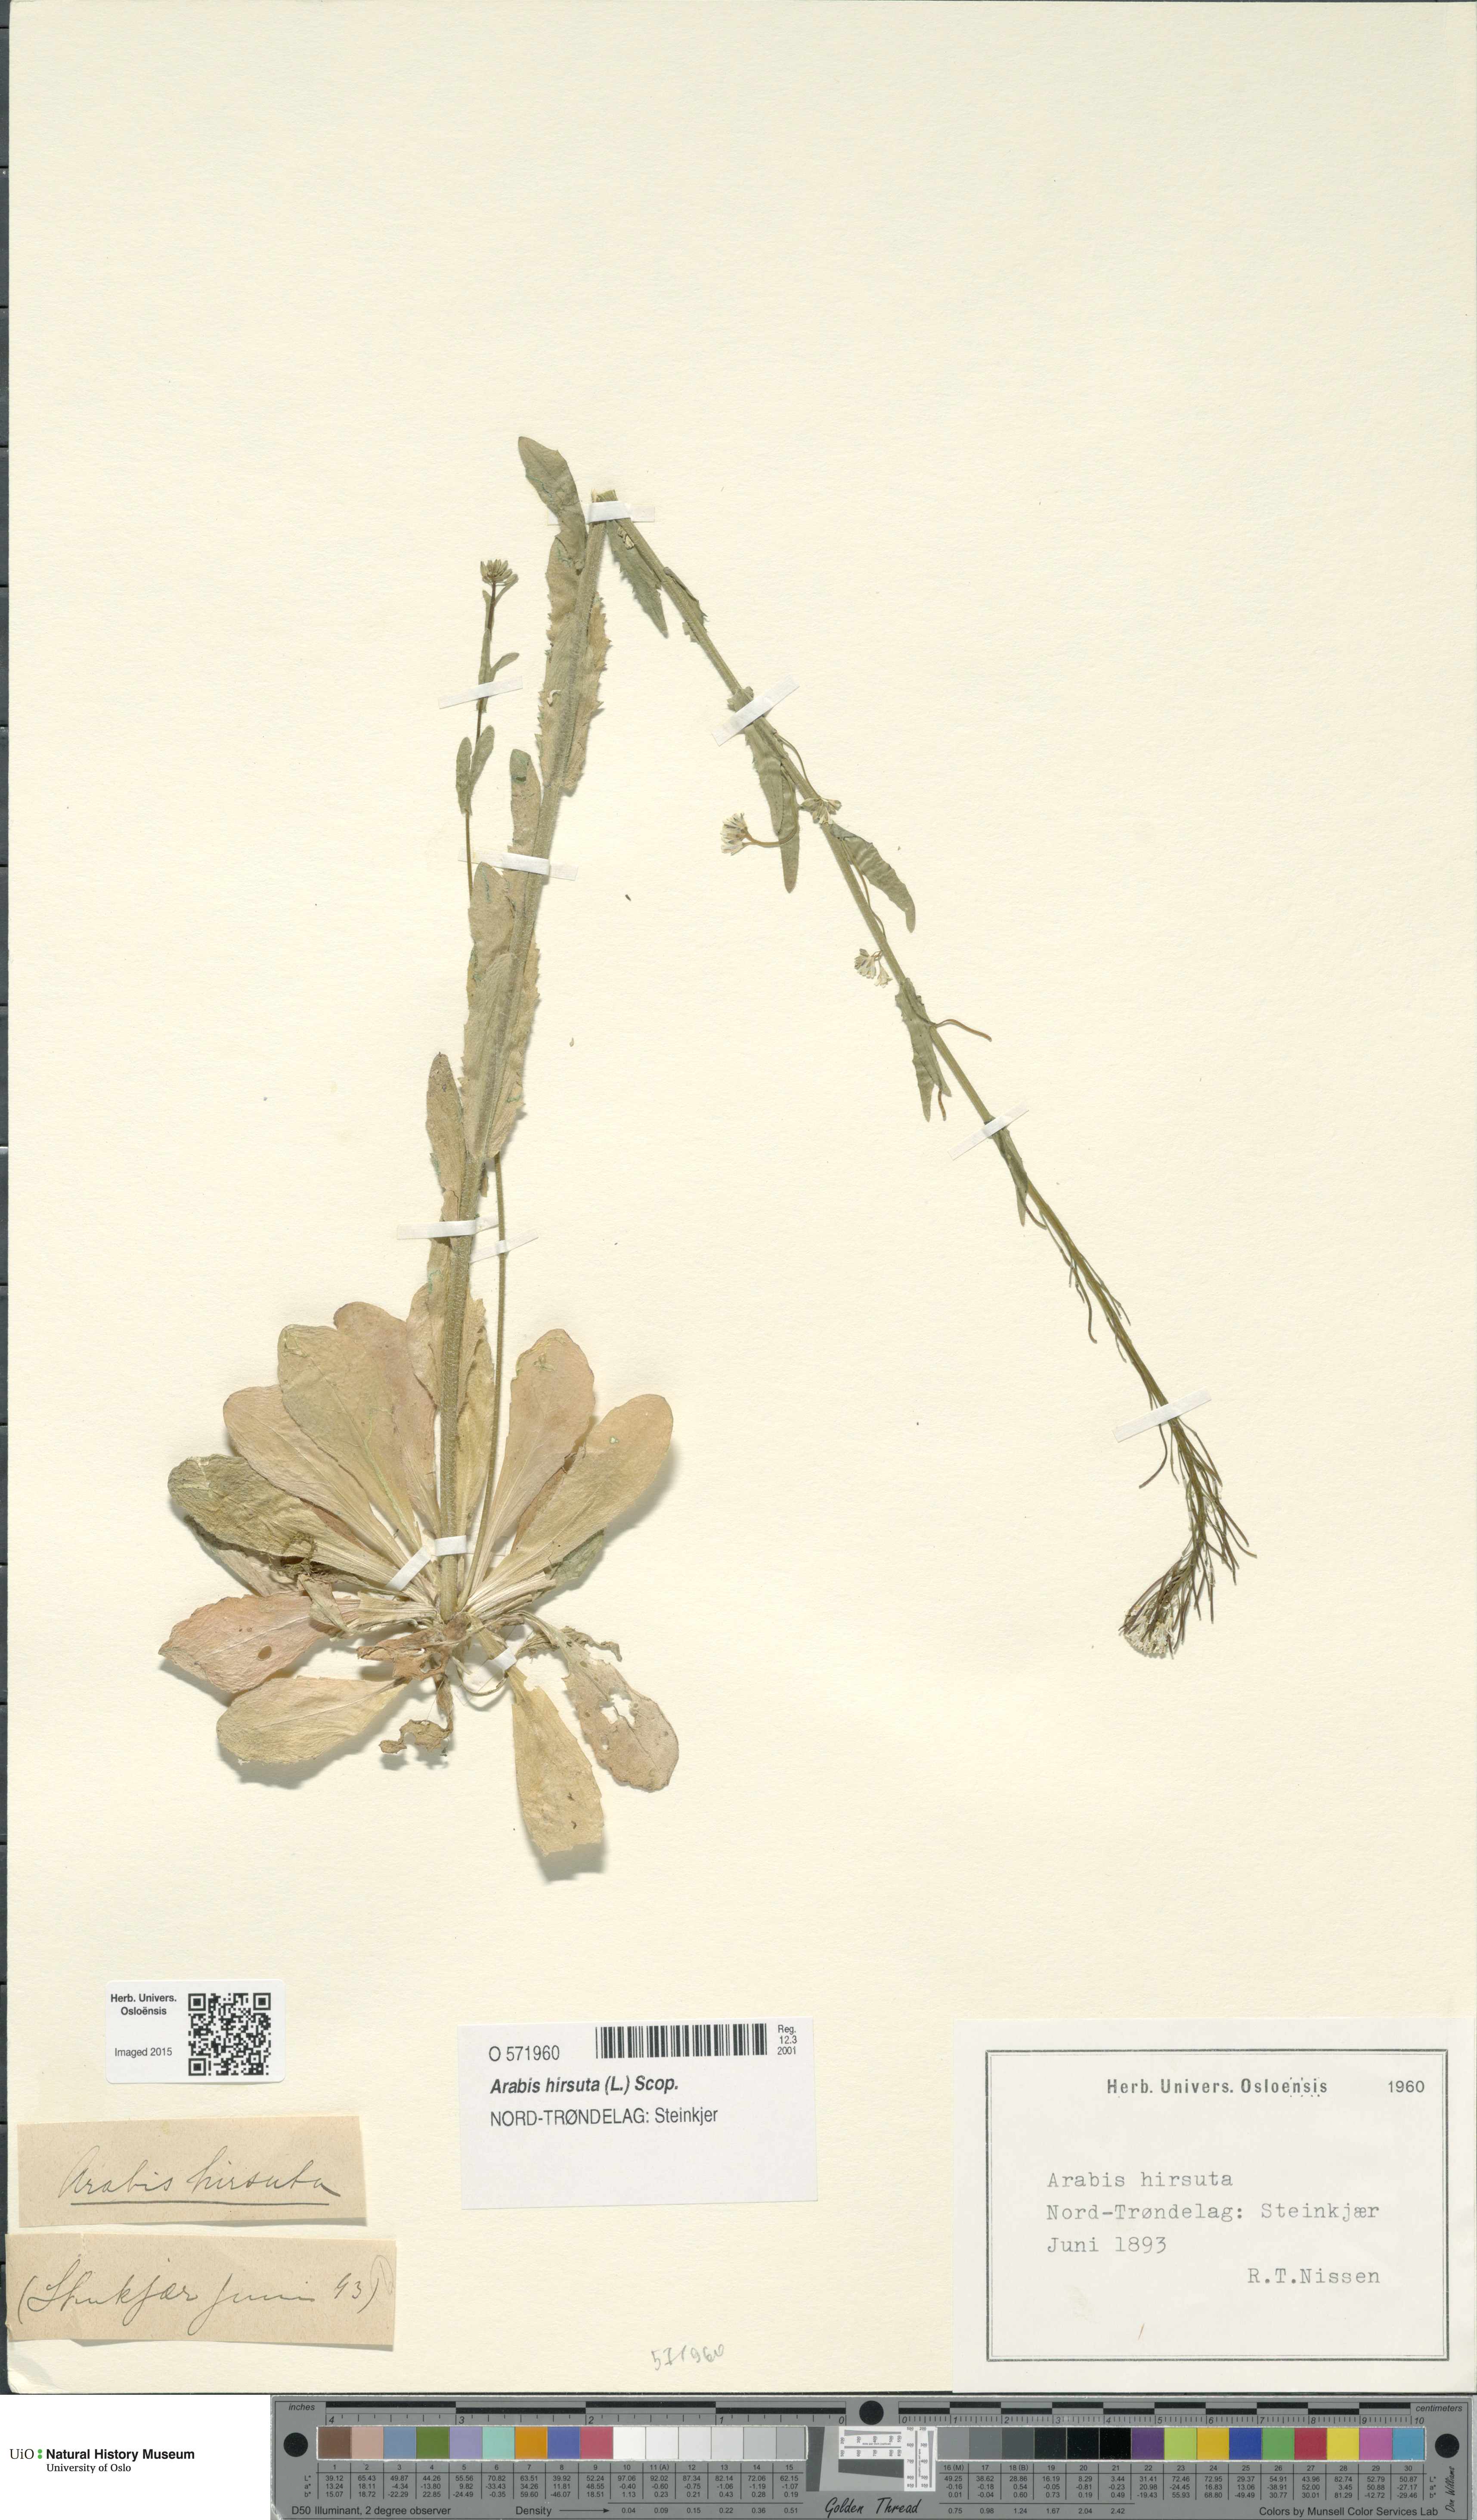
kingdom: Plantae
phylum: Tracheophyta
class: Magnoliopsida
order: Brassicales
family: Brassicaceae
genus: Arabis
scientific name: Arabis hirsuta
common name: Hairy rock-cress
